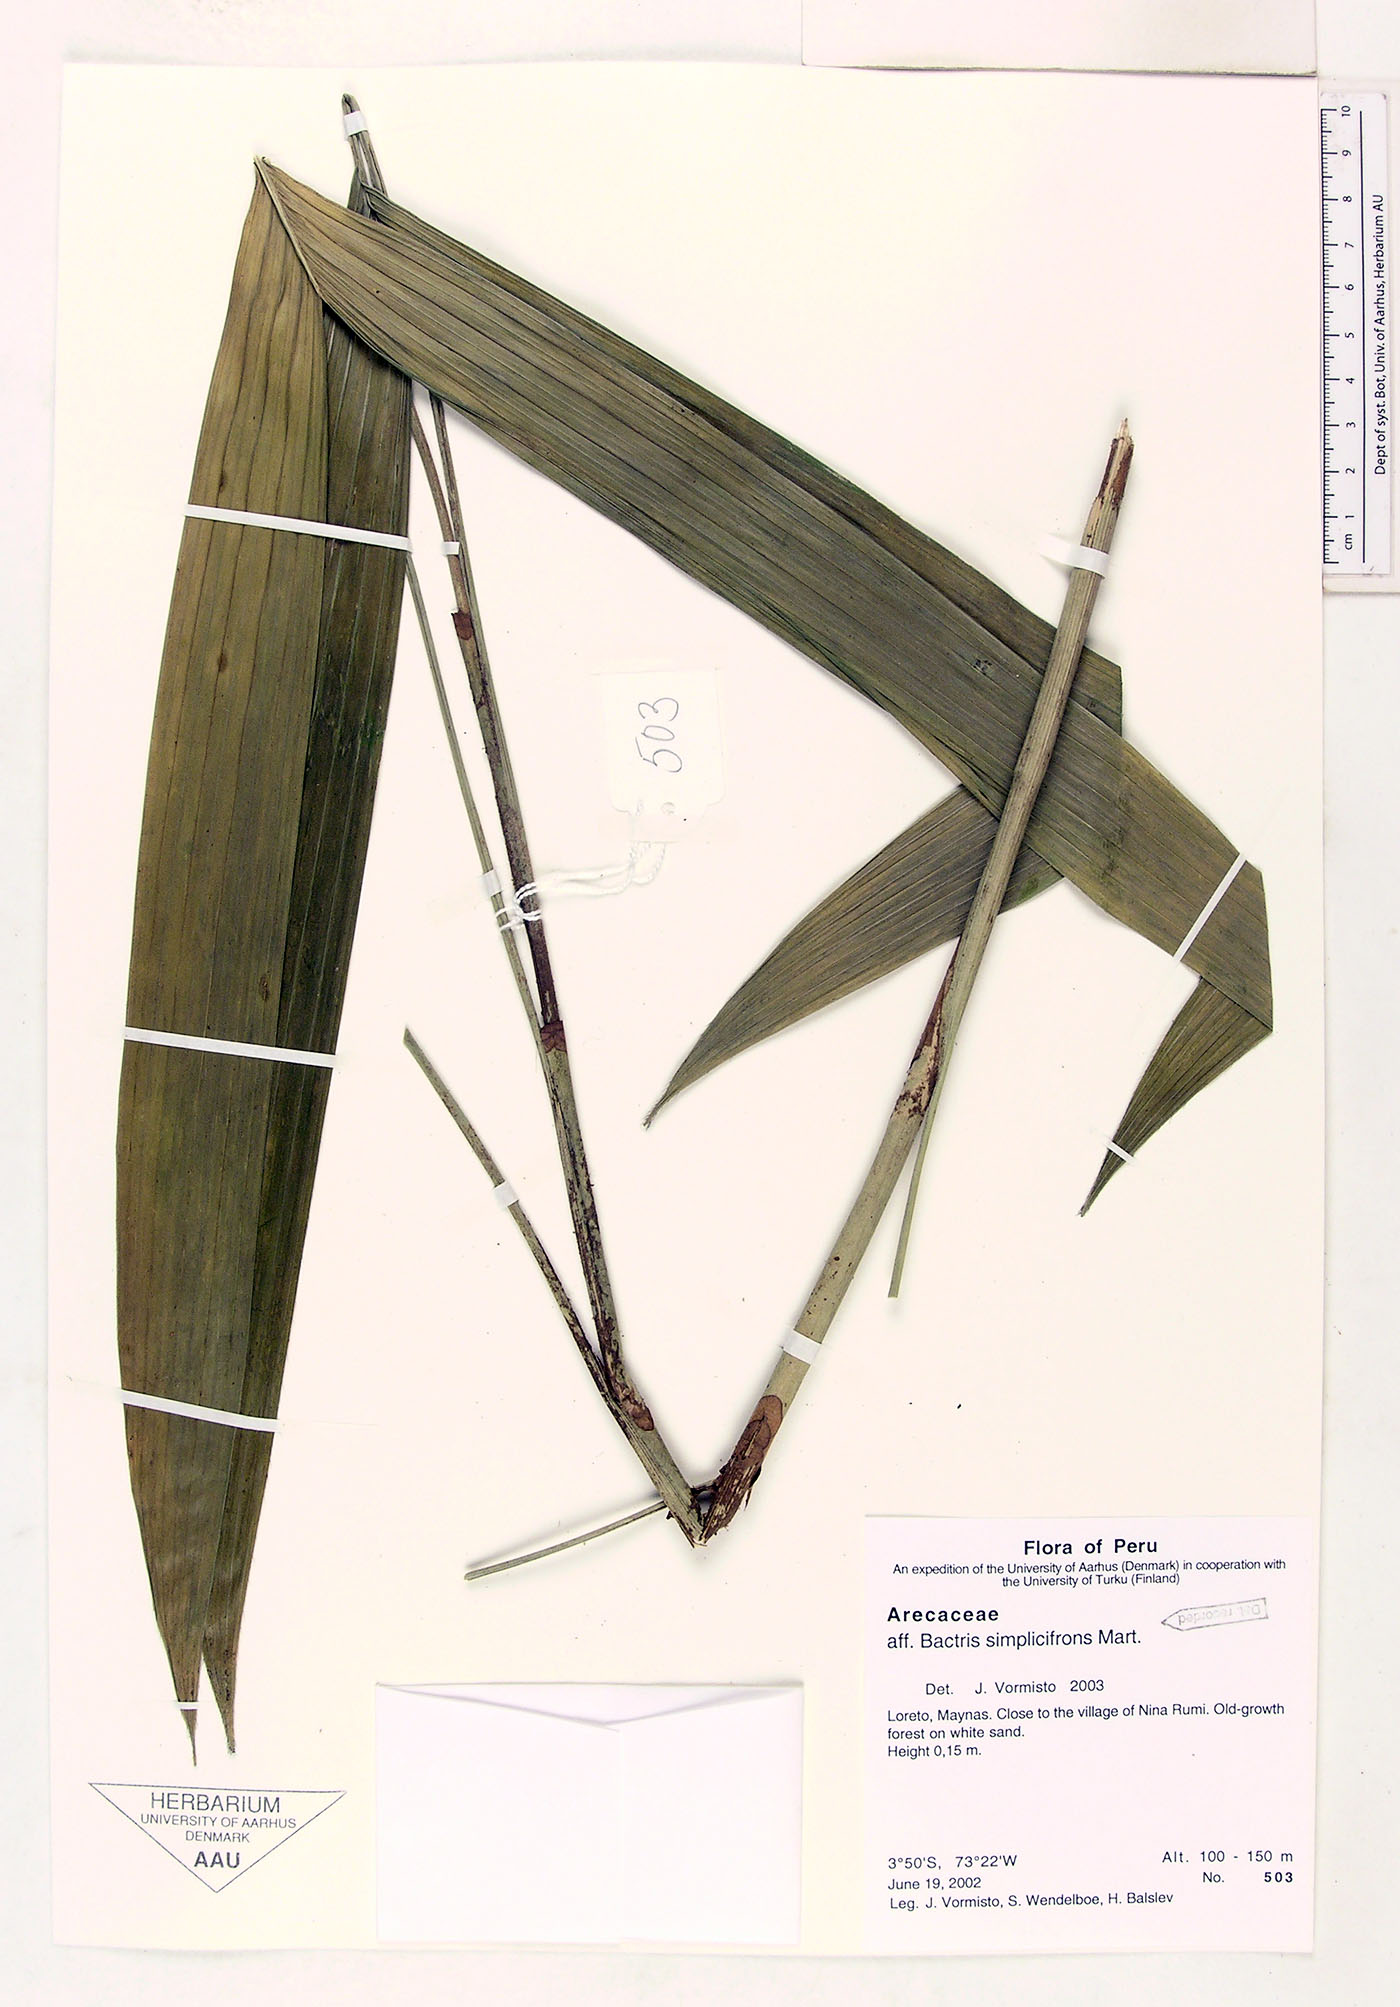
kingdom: Plantae
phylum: Tracheophyta
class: Liliopsida
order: Arecales
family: Arecaceae
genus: Bactris
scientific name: Bactris simplicifrons
